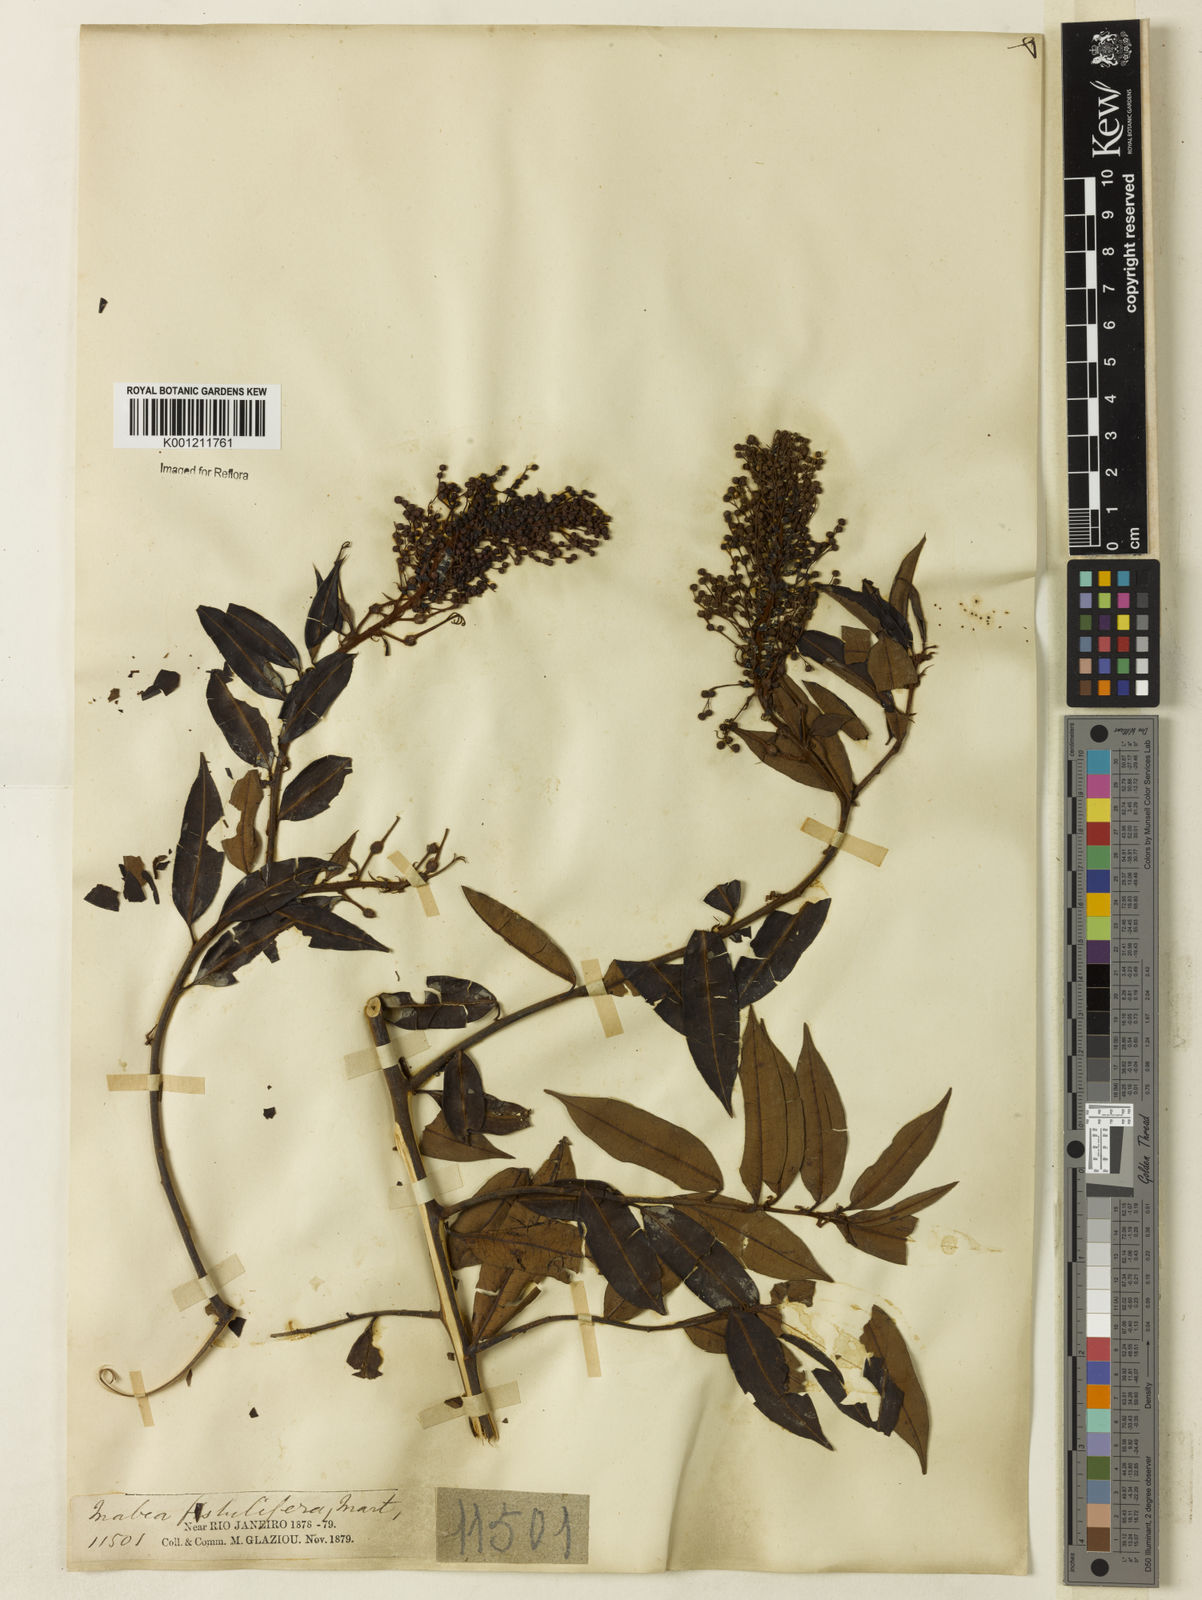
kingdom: Plantae
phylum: Tracheophyta
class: Magnoliopsida
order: Malpighiales
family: Euphorbiaceae
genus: Mabea
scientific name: Mabea angustifolia
